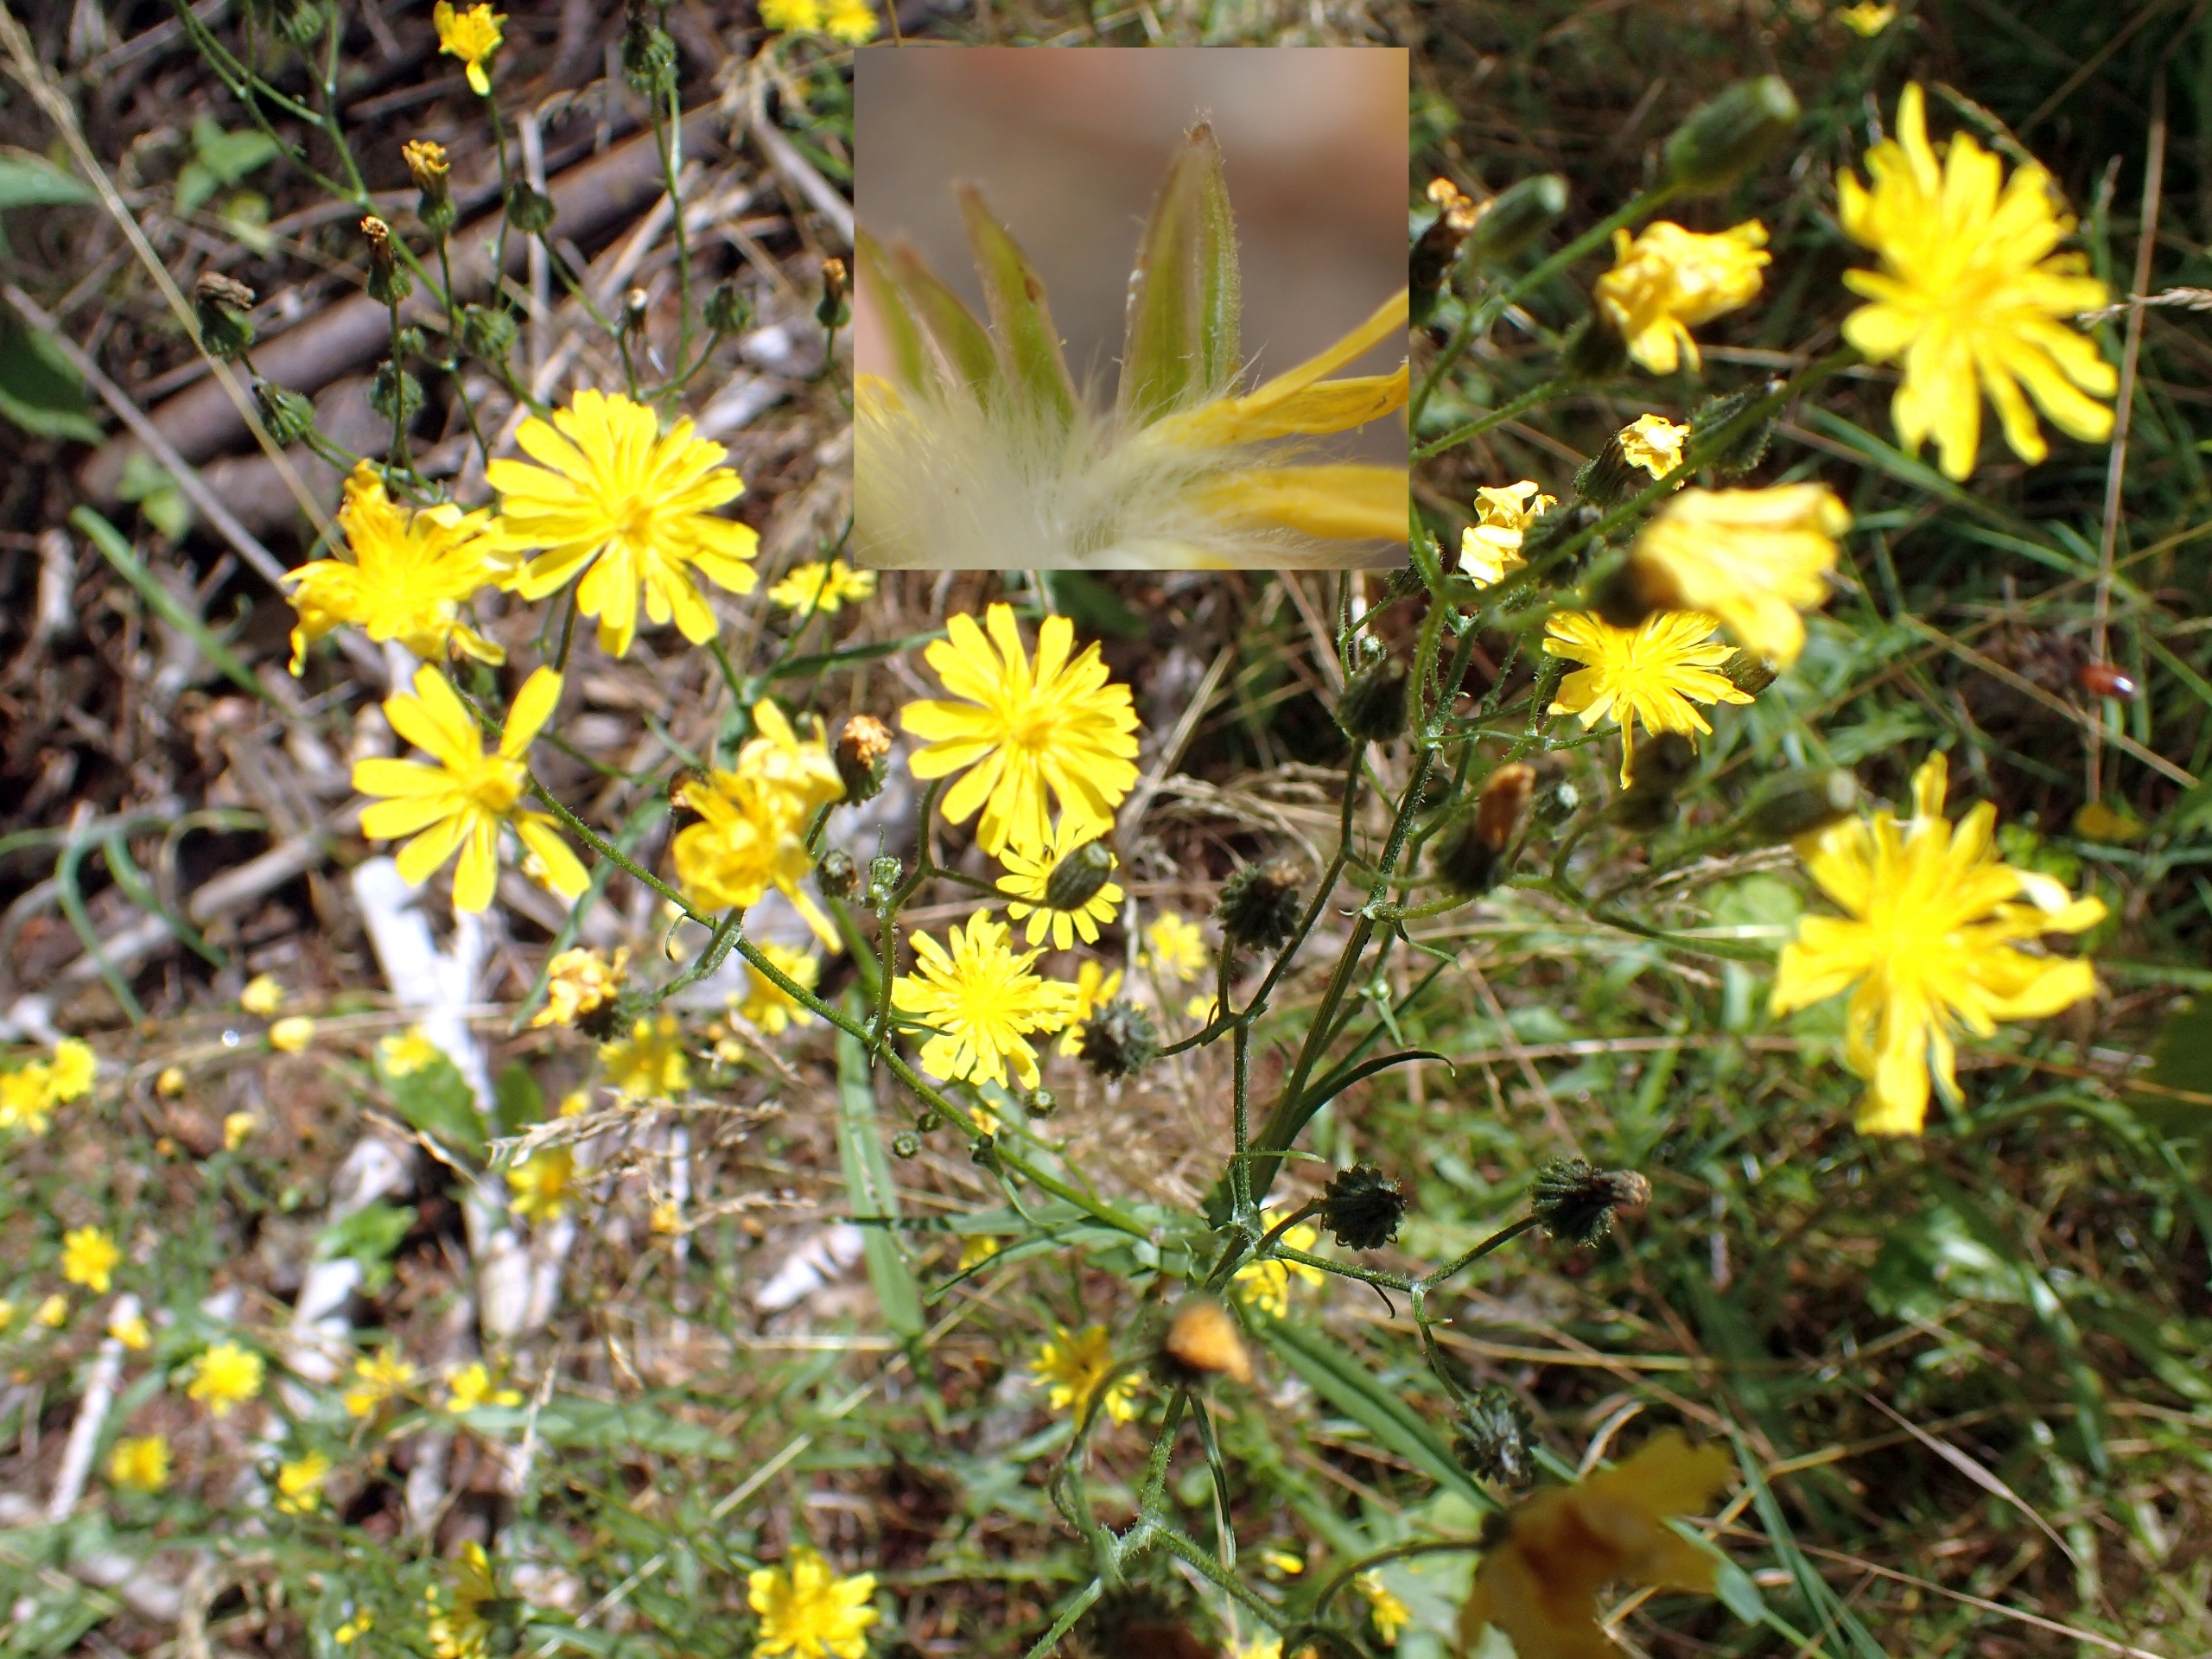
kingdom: Plantae
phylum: Tracheophyta
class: Magnoliopsida
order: Asterales
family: Asteraceae
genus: Crepis
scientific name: Crepis capillaris
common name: Grøn høgeskæg
